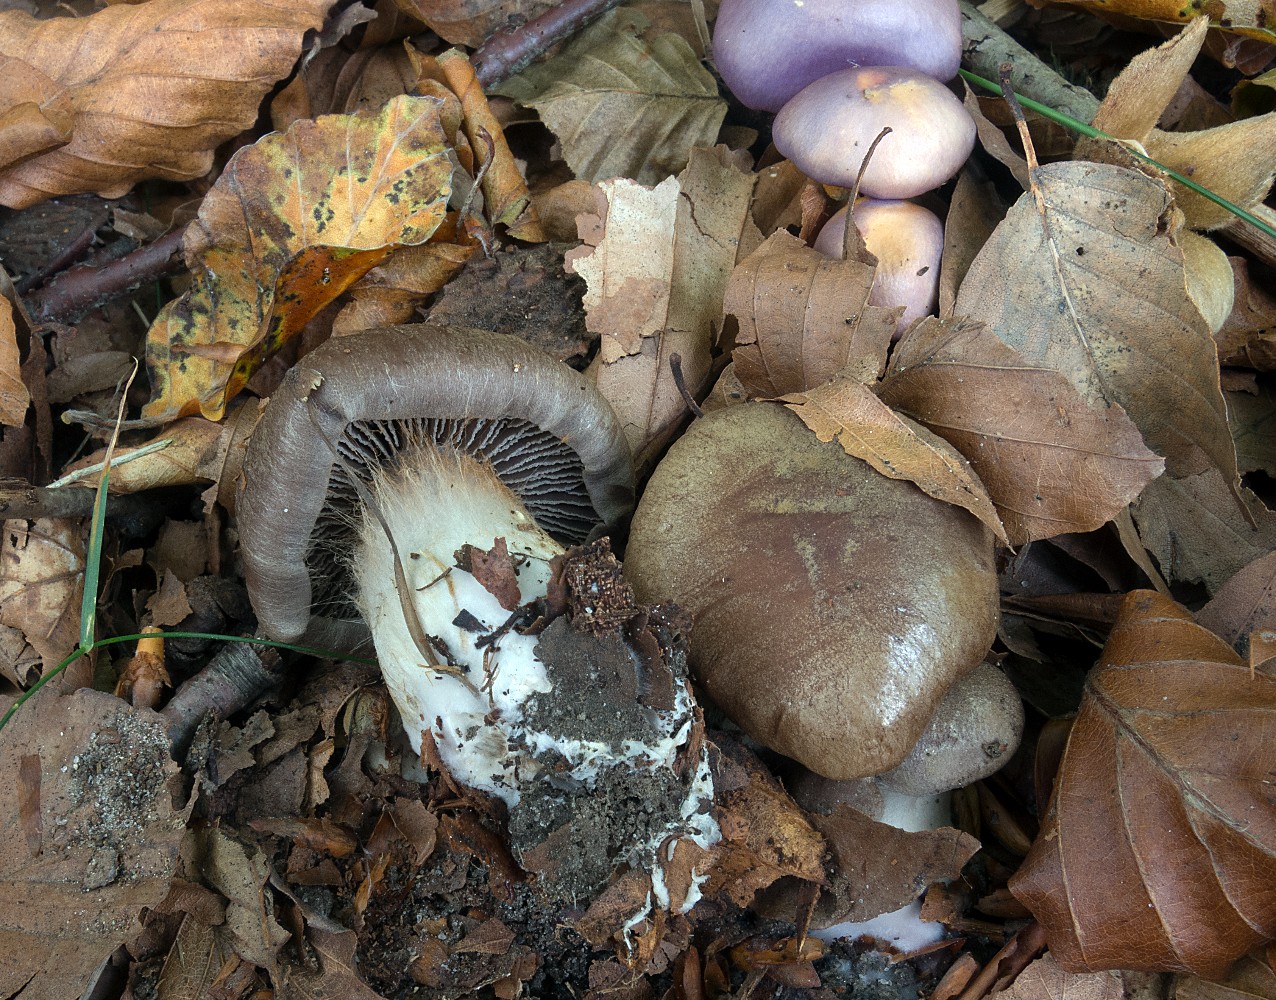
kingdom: Fungi
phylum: Basidiomycota
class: Agaricomycetes
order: Agaricales
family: Cortinariaceae
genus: Cortinarius
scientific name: Cortinarius
